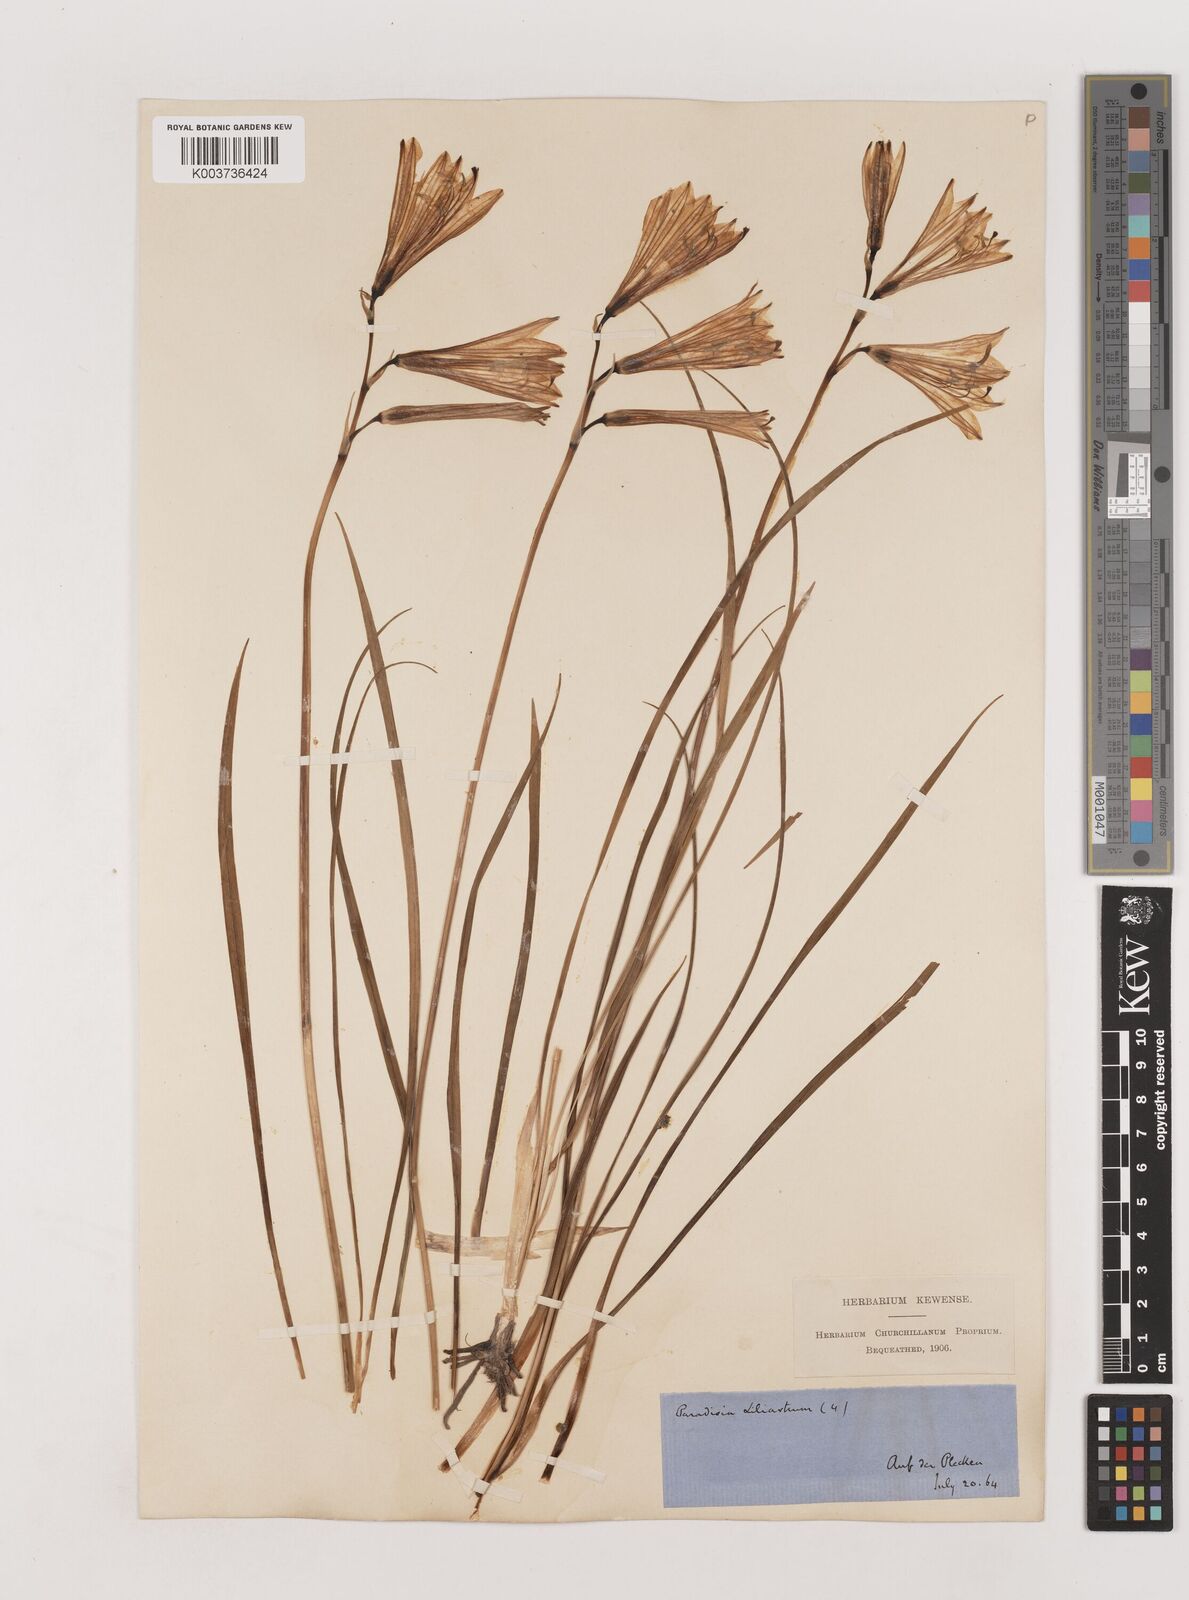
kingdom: Plantae
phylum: Tracheophyta
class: Liliopsida
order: Asparagales
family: Asparagaceae
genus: Paradisea
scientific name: Paradisea liliastrum
